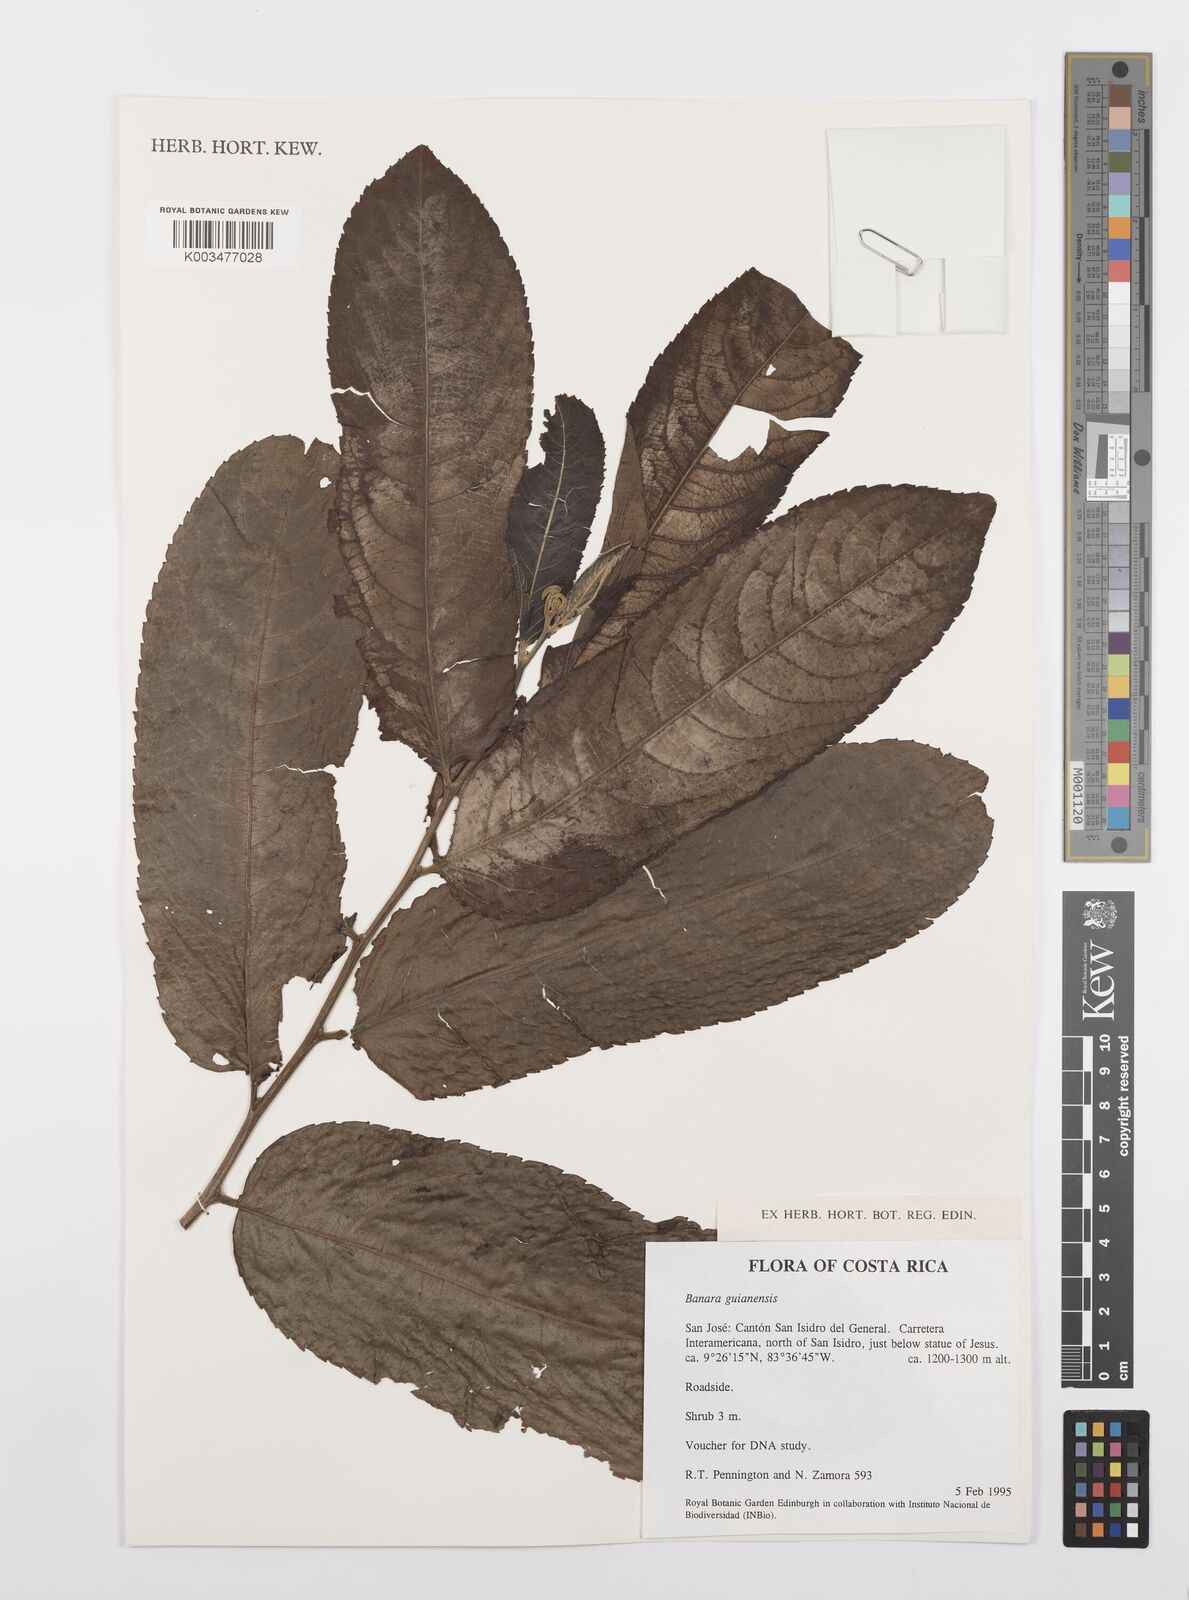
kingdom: Plantae
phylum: Tracheophyta
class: Magnoliopsida
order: Malpighiales
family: Salicaceae
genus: Banara
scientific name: Banara guianensis
